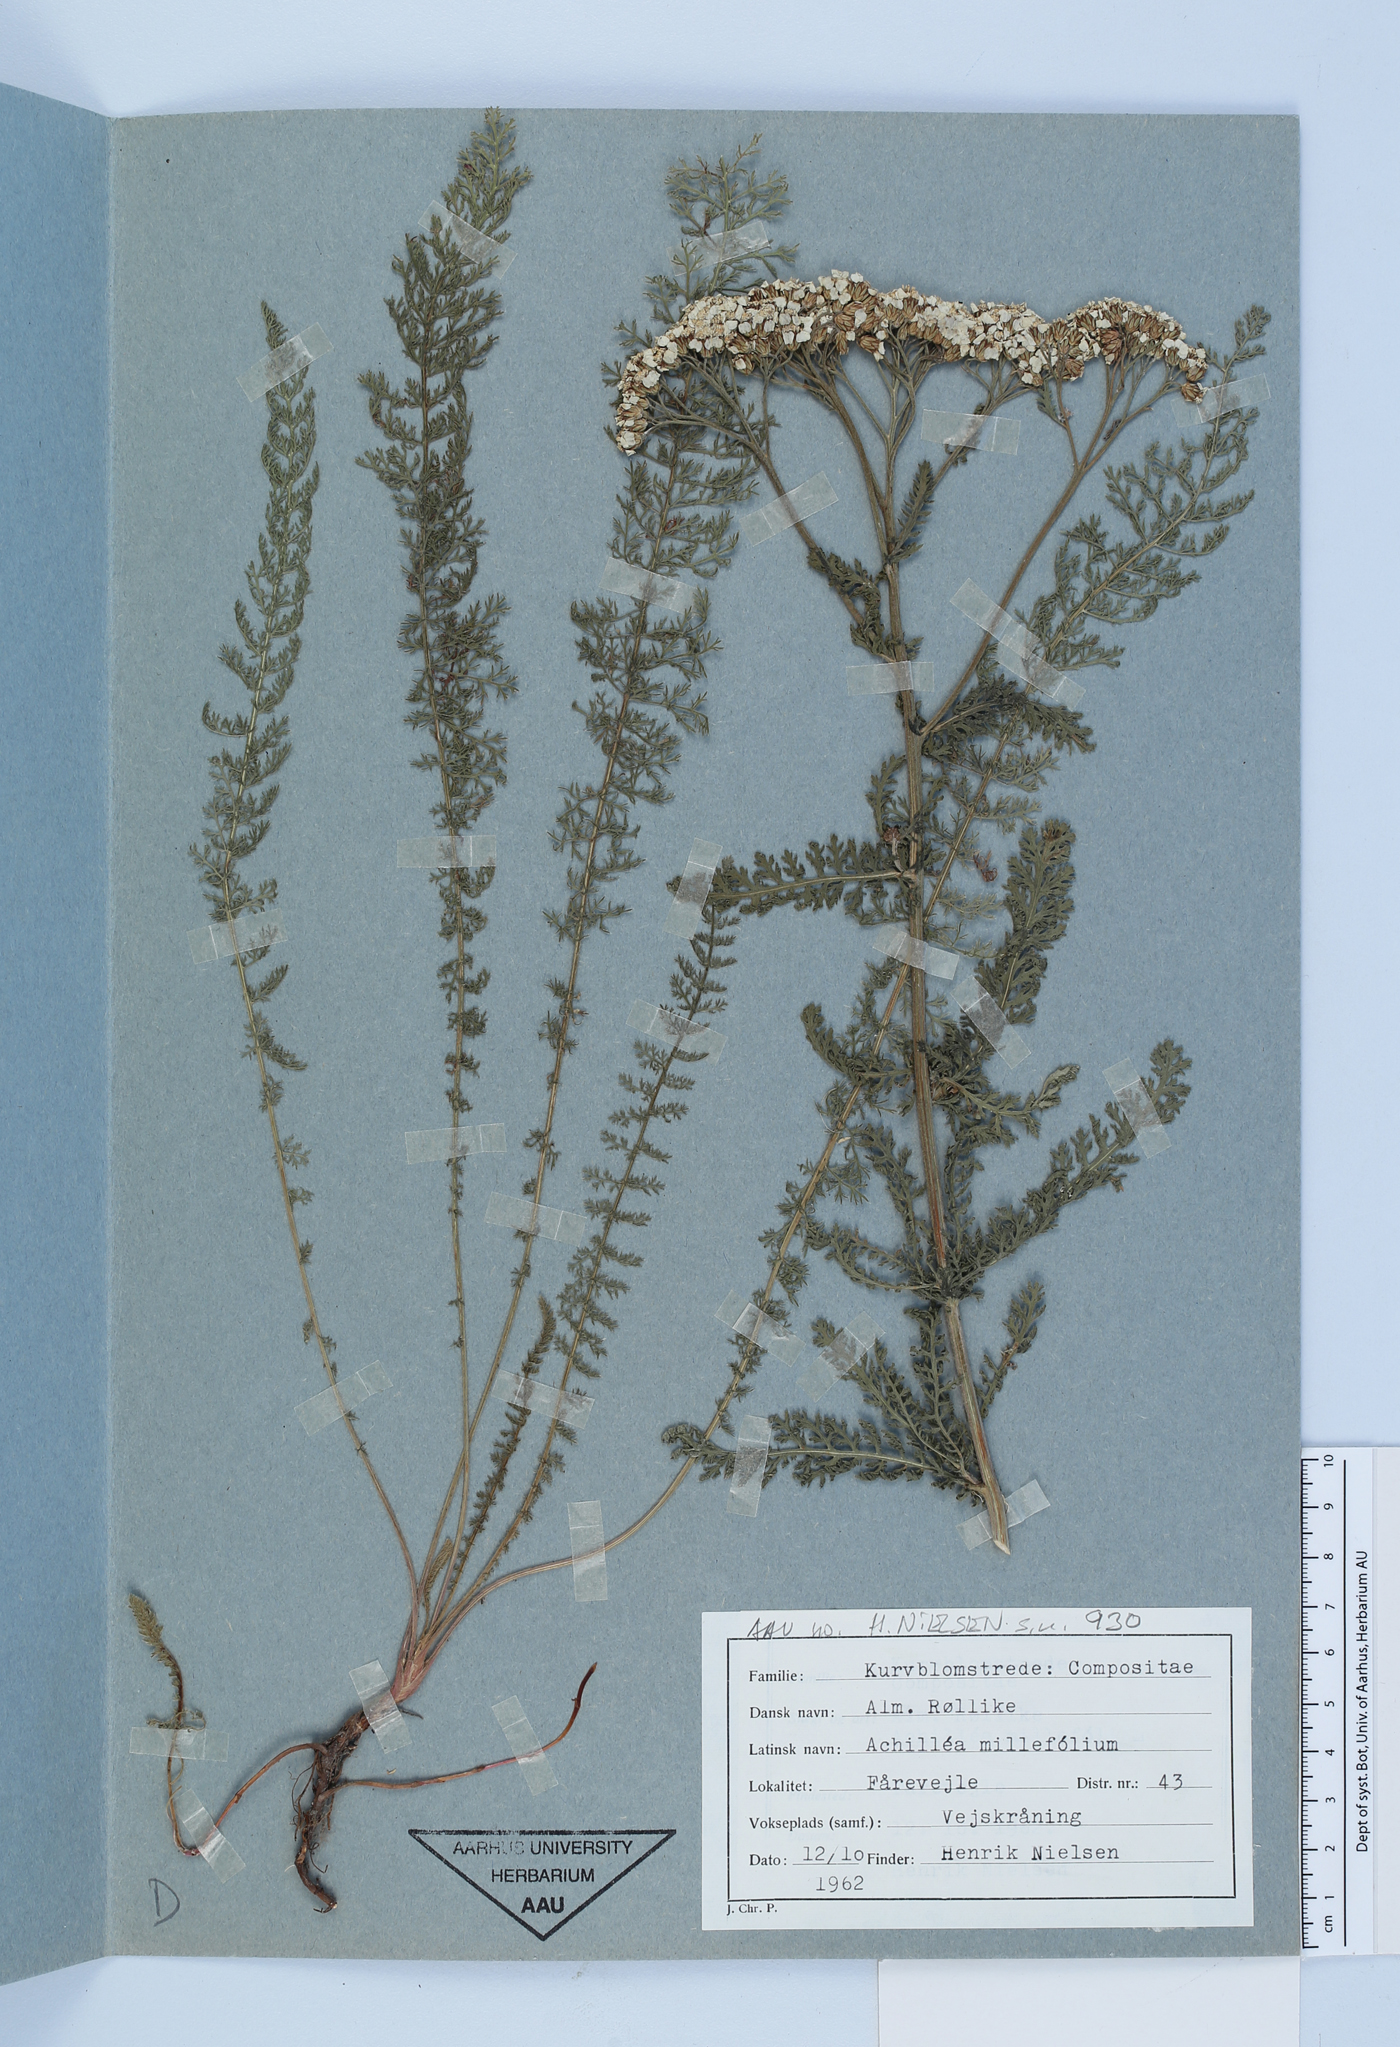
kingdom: Plantae
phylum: Tracheophyta
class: Magnoliopsida
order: Asterales
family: Asteraceae
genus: Achillea
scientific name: Achillea millefolium
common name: Yarrow
